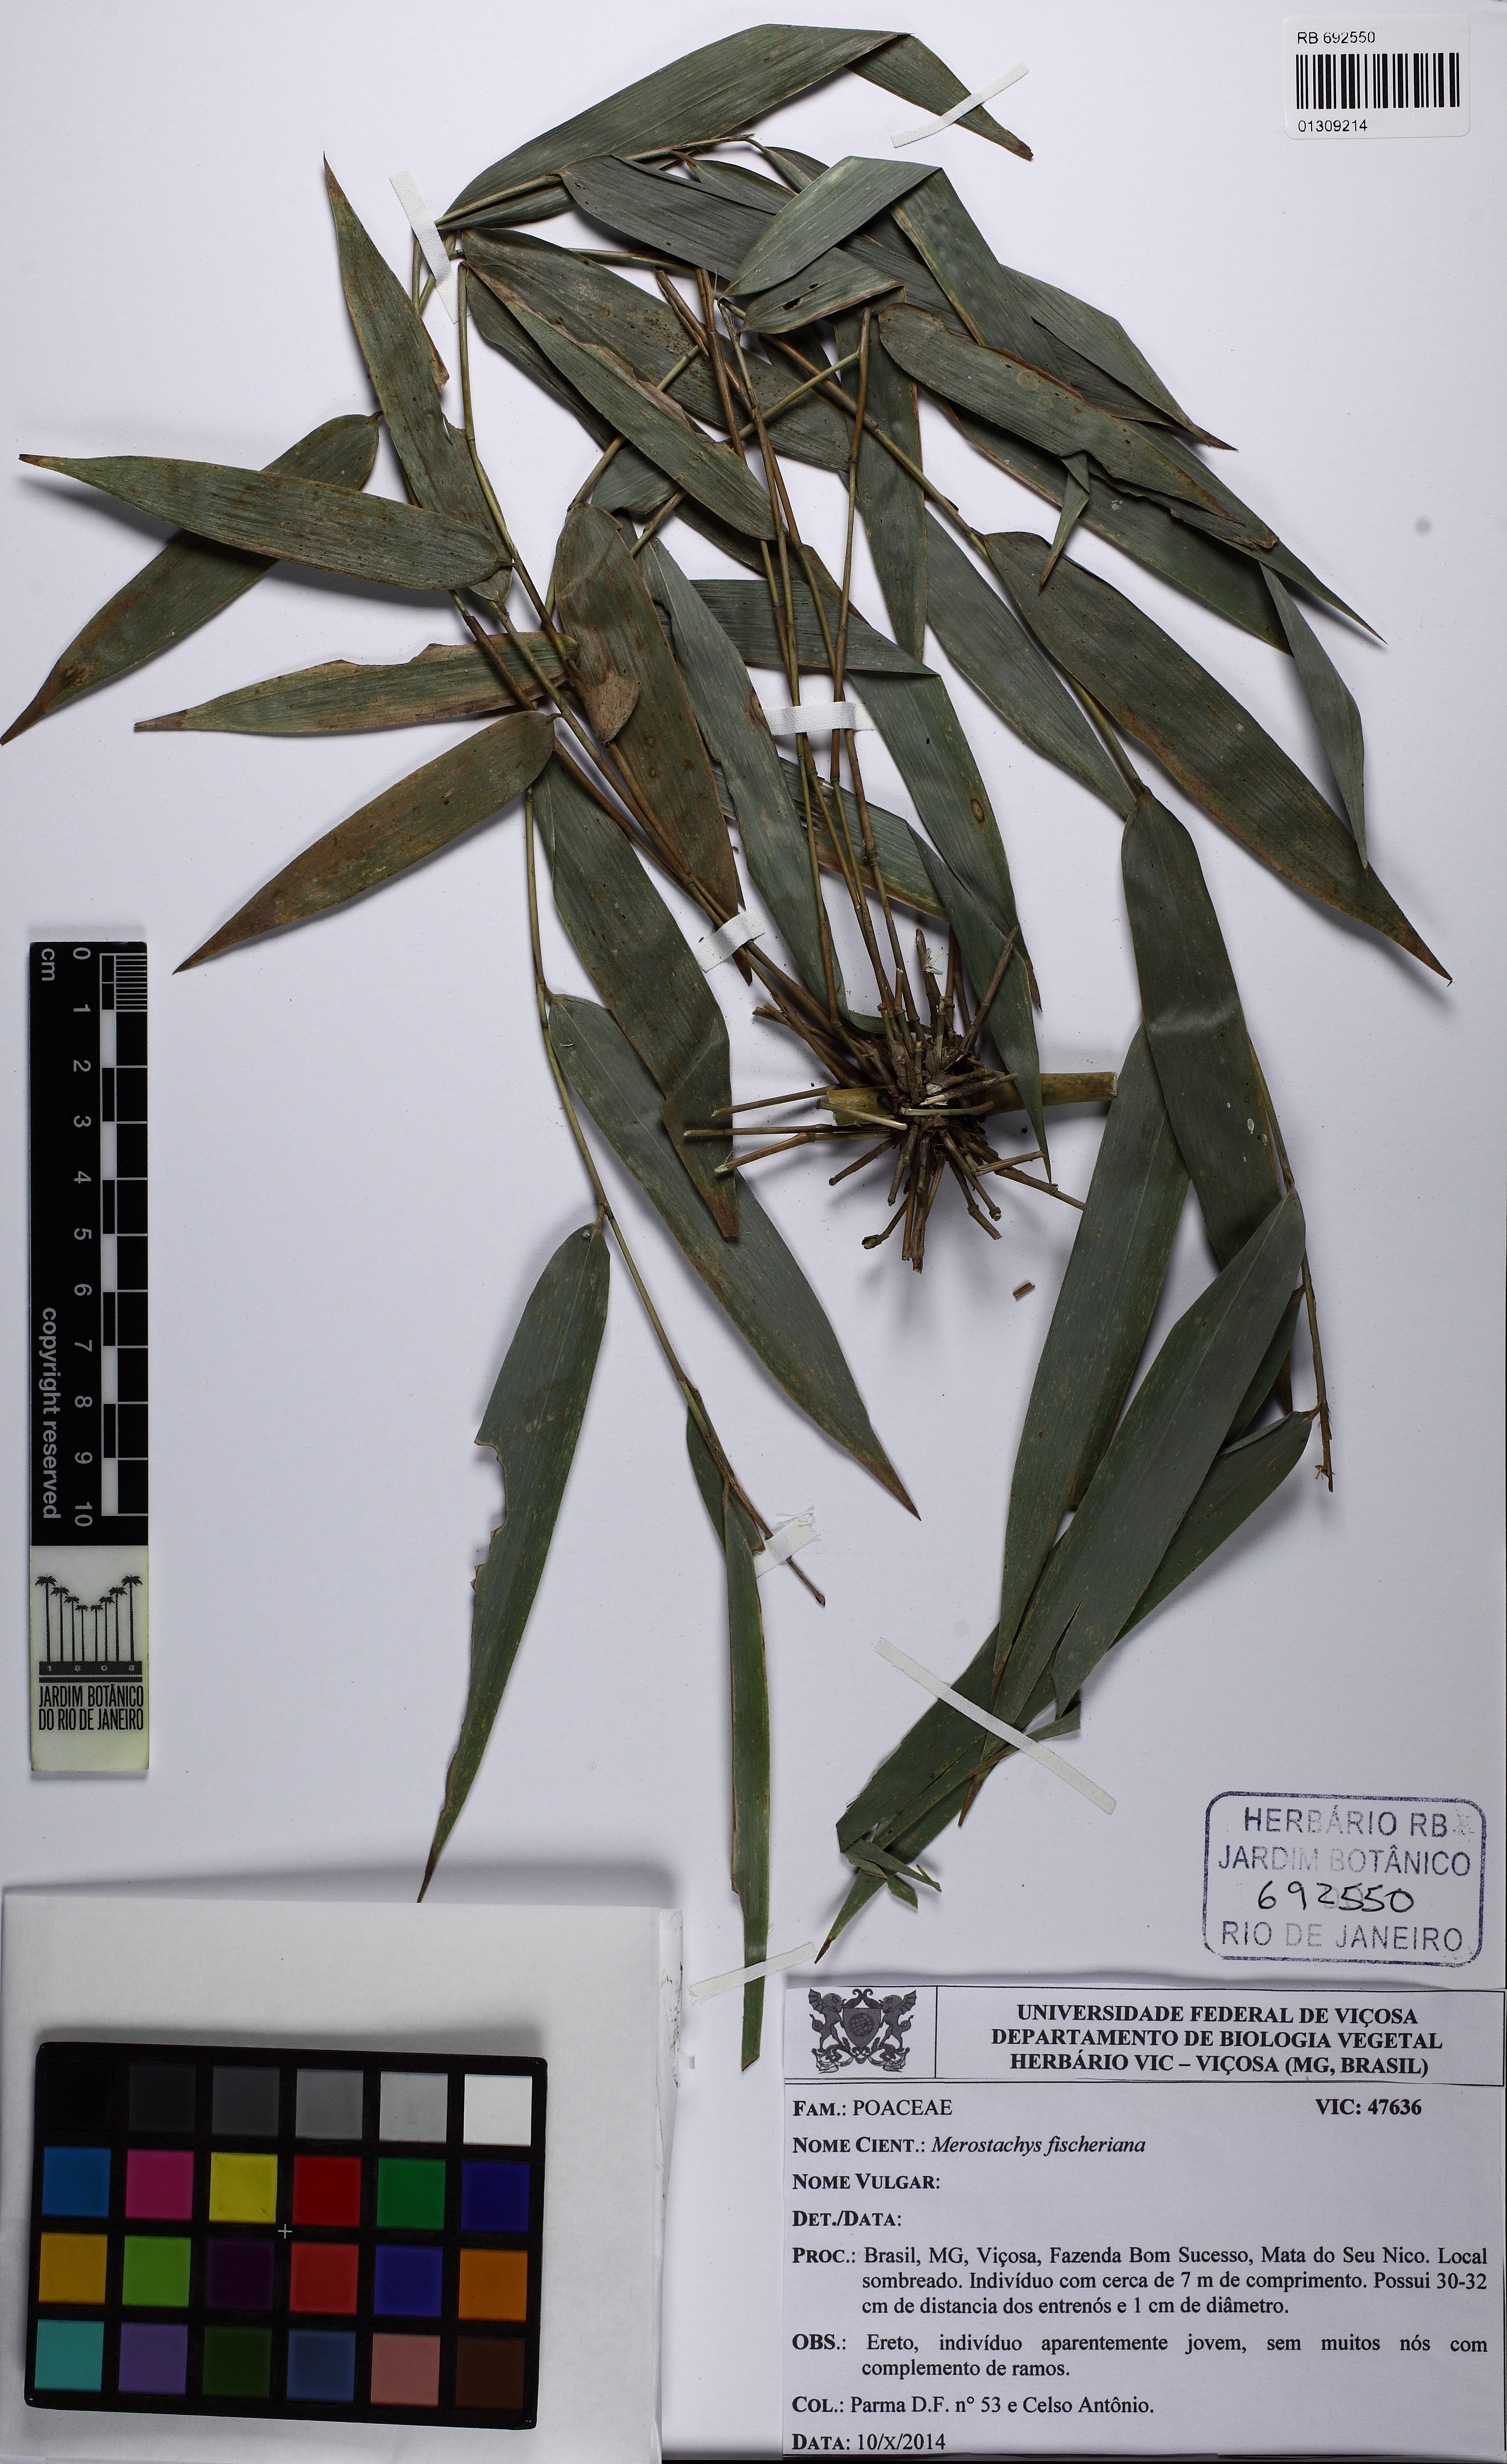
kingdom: Plantae
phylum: Tracheophyta
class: Liliopsida
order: Poales
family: Poaceae
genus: Merostachys
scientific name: Merostachys fischeriana
